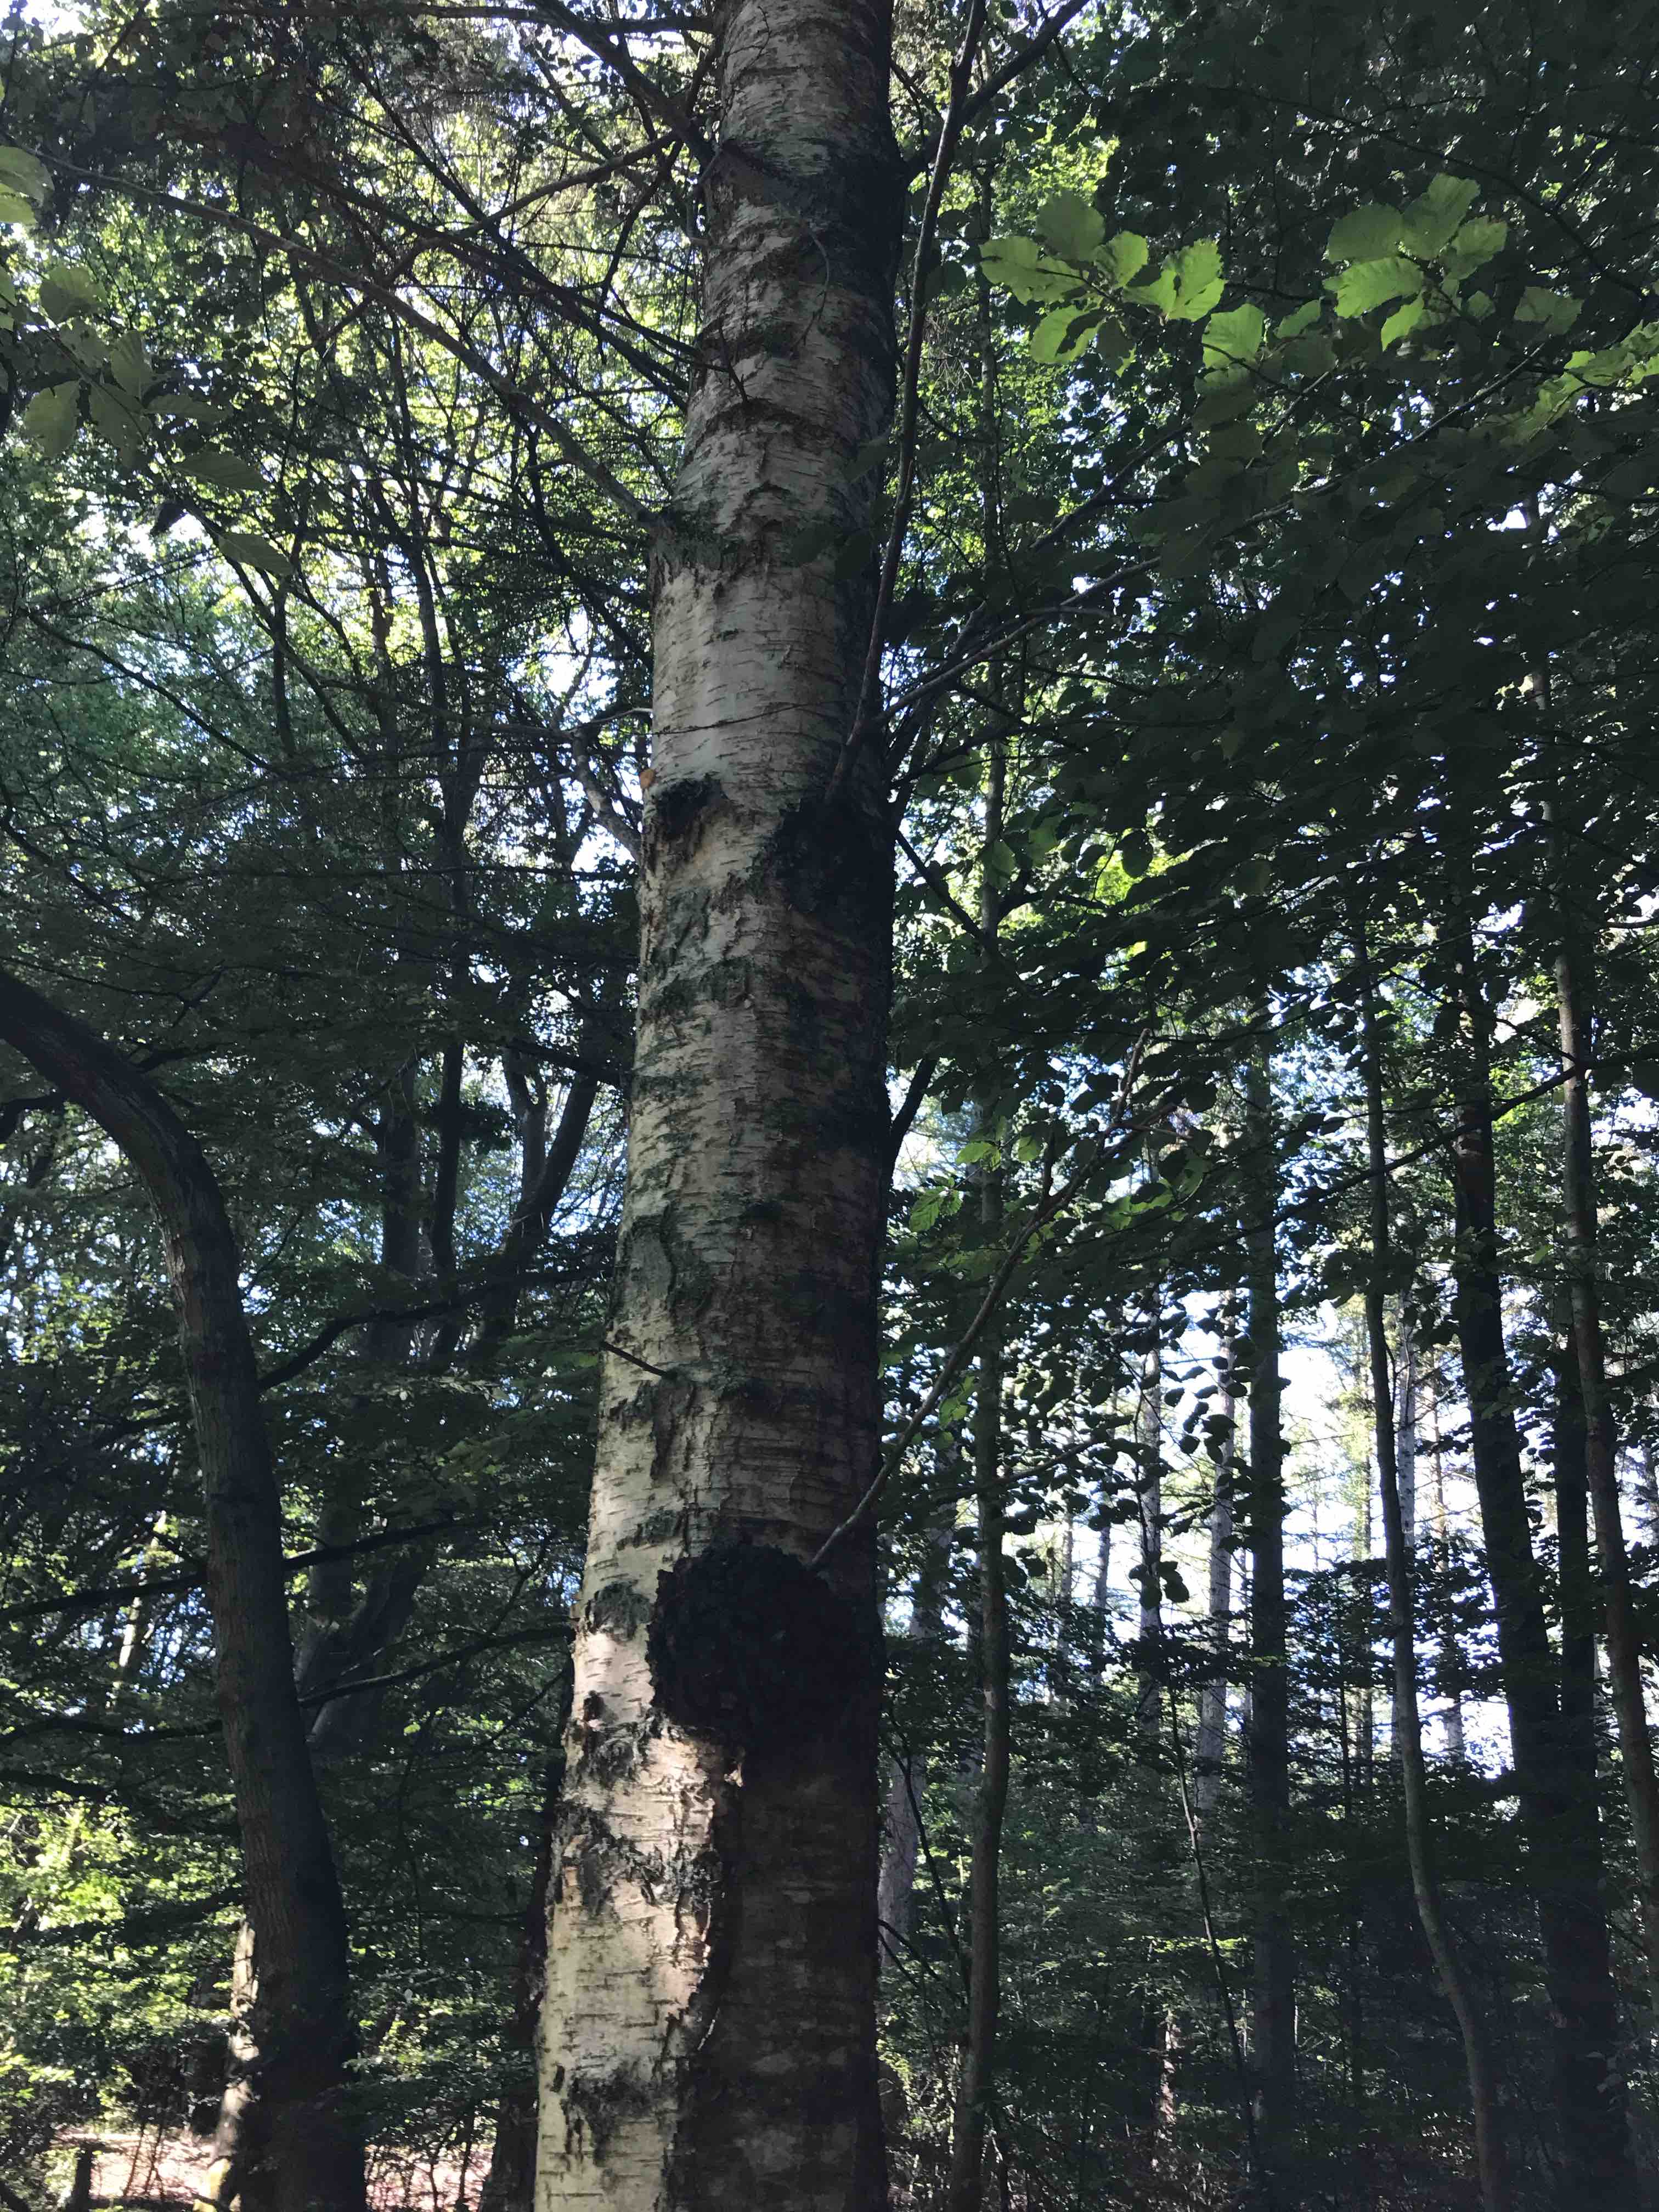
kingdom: Fungi
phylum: Basidiomycota
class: Agaricomycetes
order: Hymenochaetales
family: Hymenochaetaceae
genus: Inonotus
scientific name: Inonotus obliquus
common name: birke-spejlporesvamp
